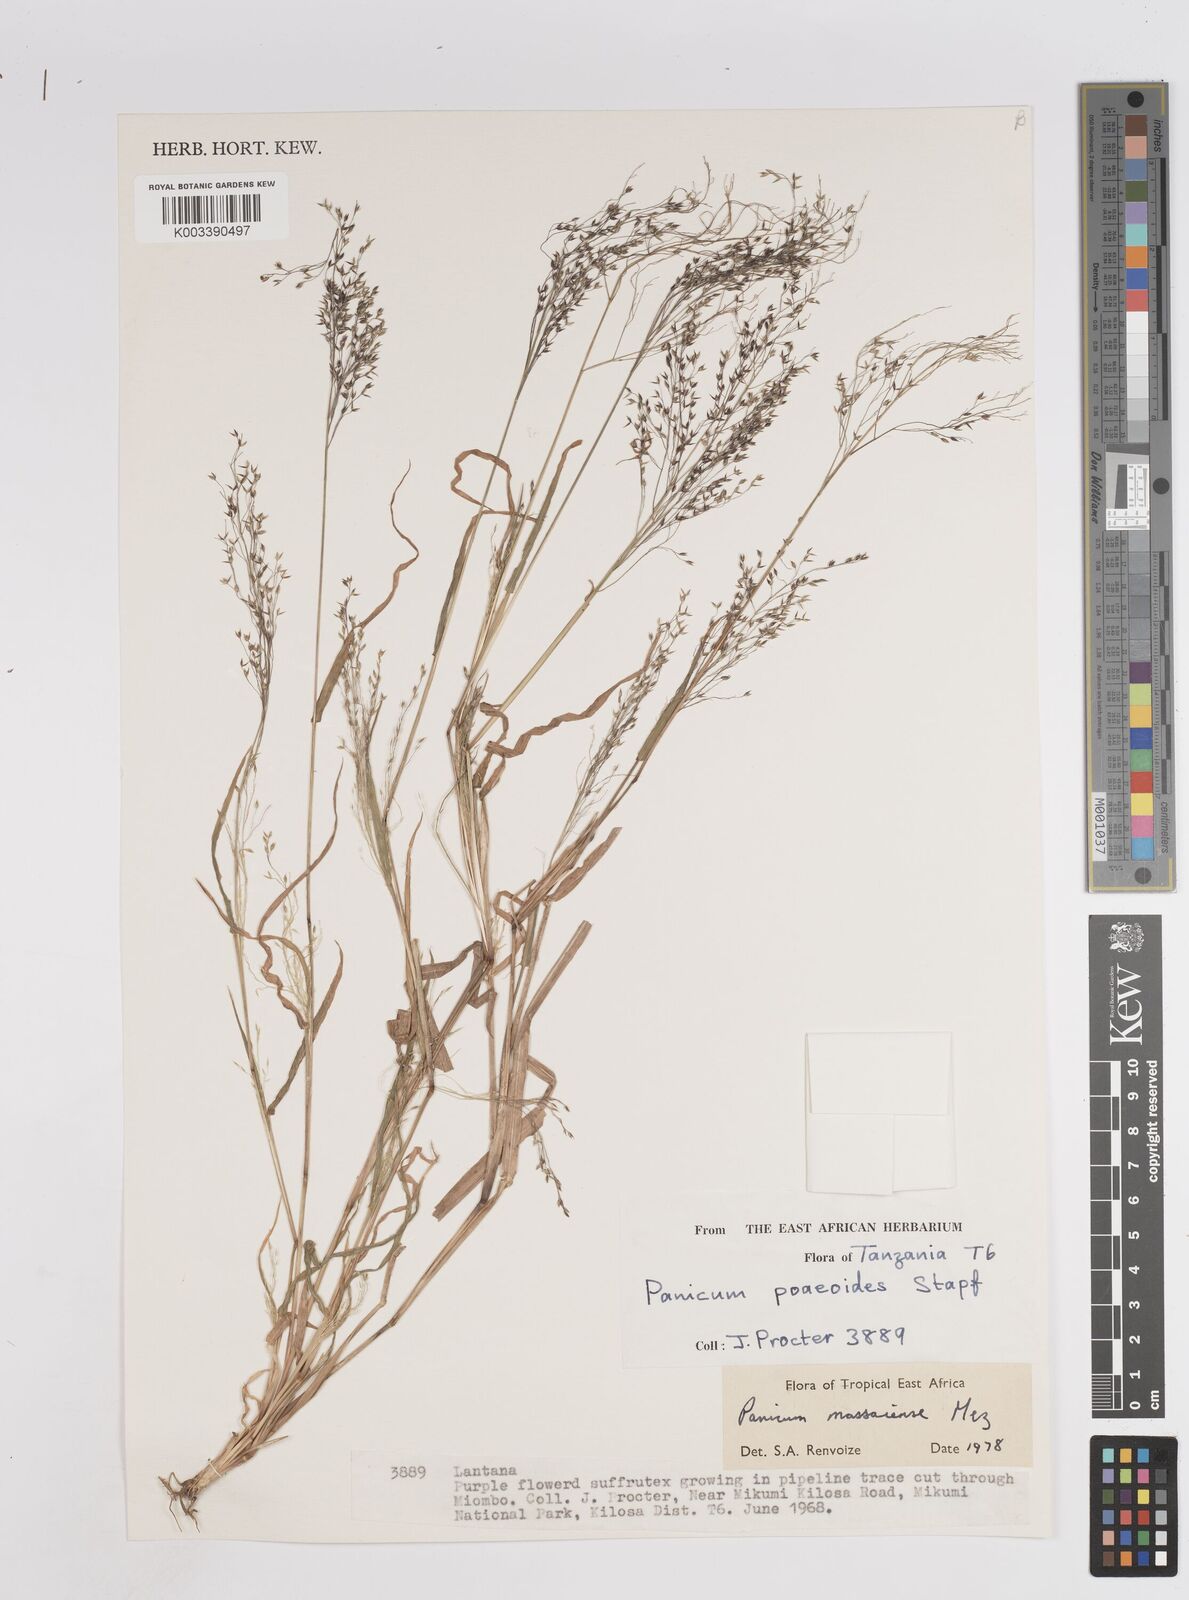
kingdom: Plantae
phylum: Tracheophyta
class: Liliopsida
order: Poales
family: Poaceae
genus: Panicum
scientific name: Panicum massaiense
